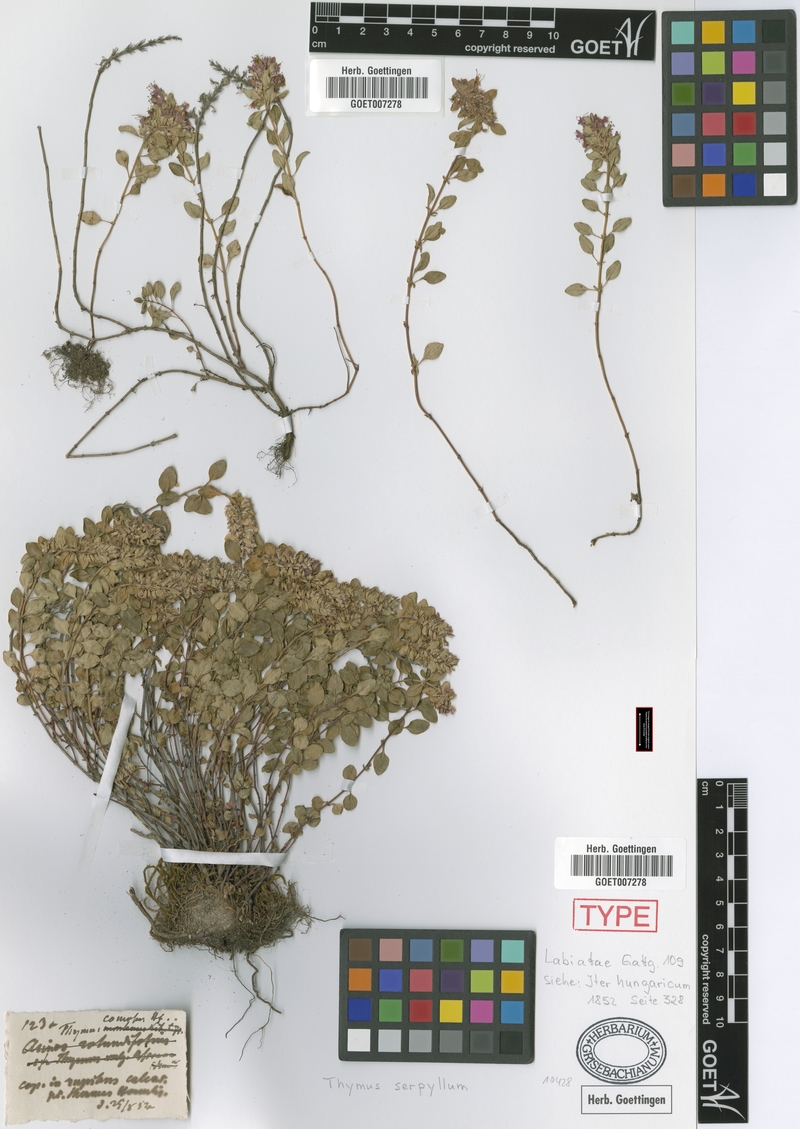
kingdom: Plantae
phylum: Tracheophyta
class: Magnoliopsida
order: Lamiales
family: Lamiaceae
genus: Thymus
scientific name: Thymus comosus
